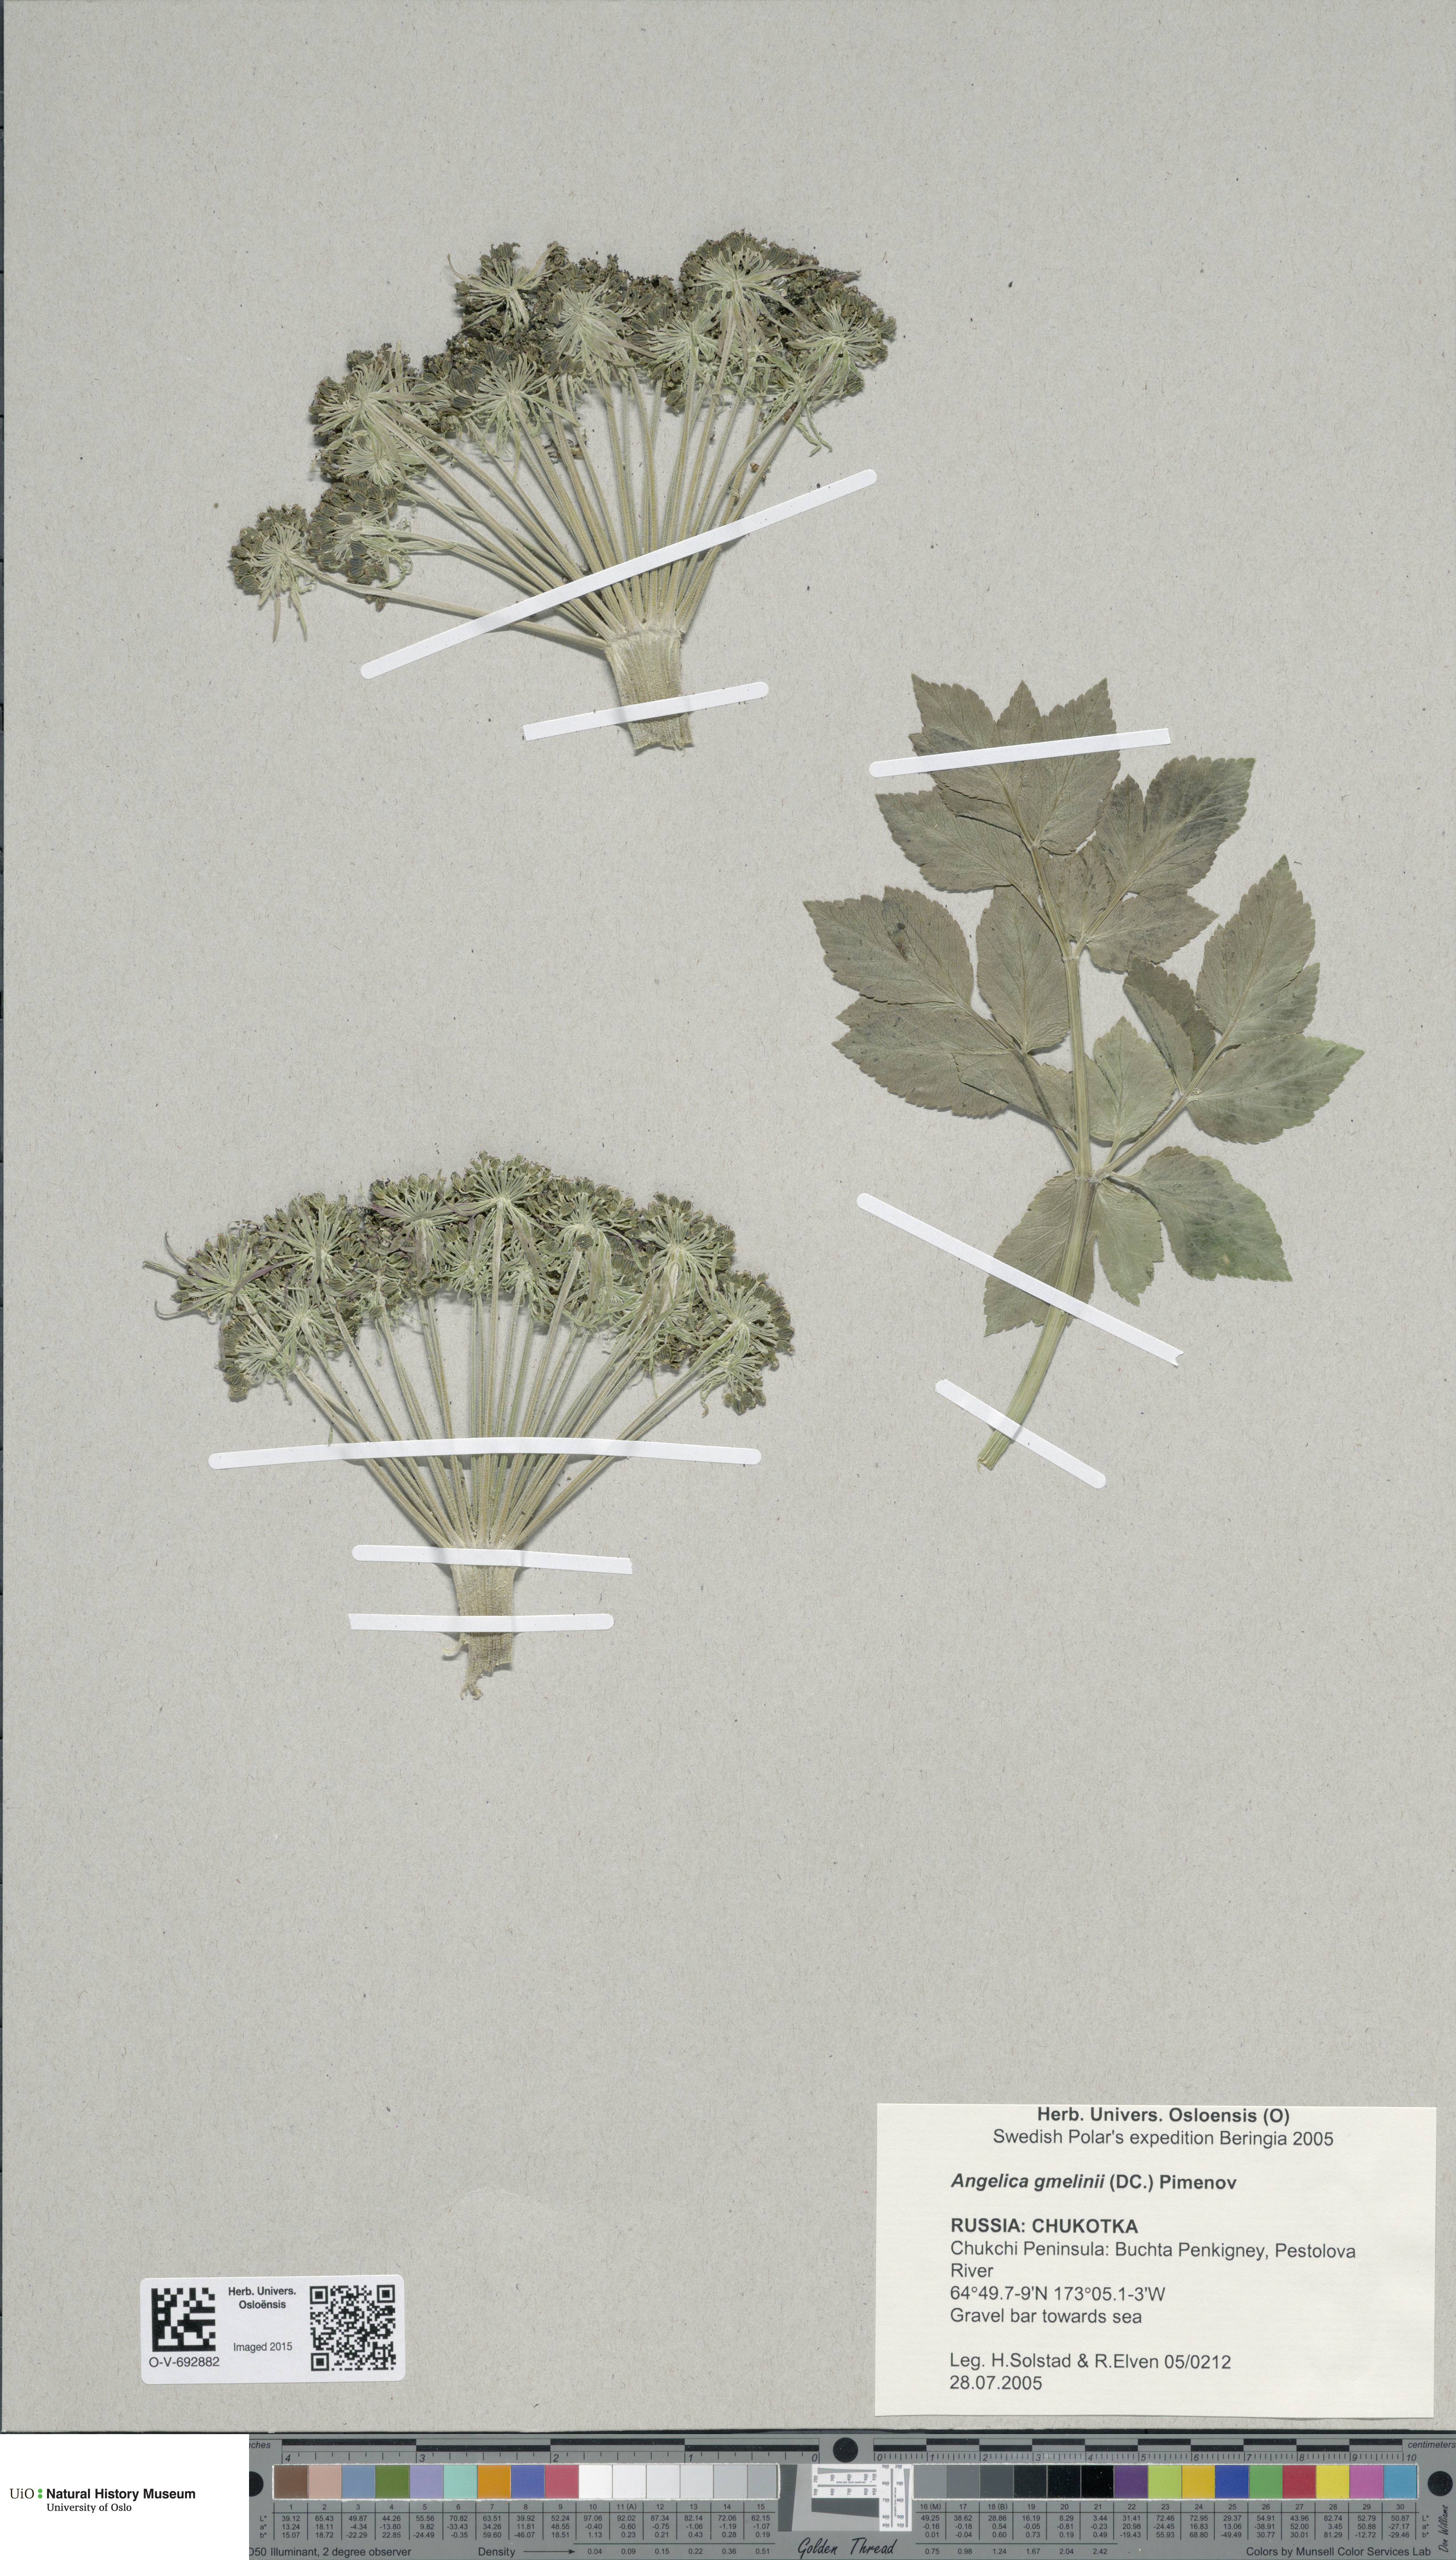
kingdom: Plantae
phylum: Tracheophyta
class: Magnoliopsida
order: Apiales
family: Apiaceae
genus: Angelica
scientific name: Angelica gmelinii
